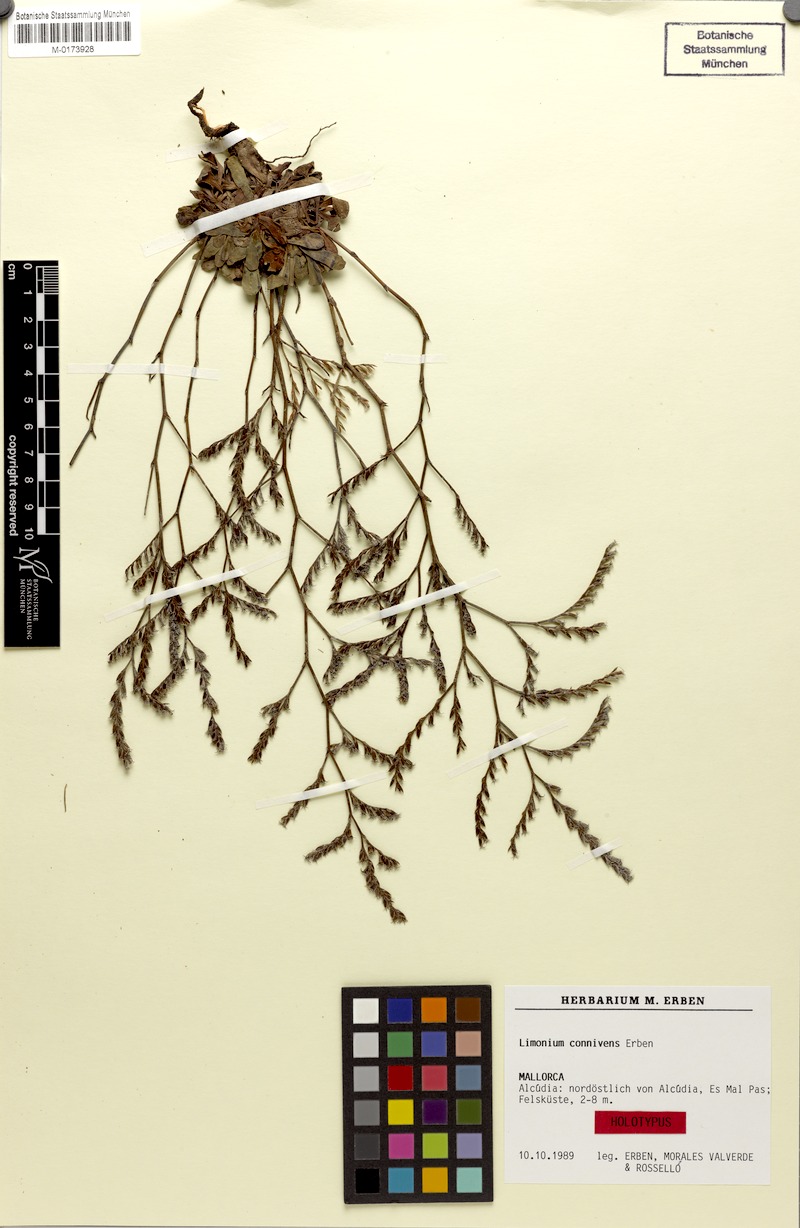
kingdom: Plantae
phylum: Tracheophyta
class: Magnoliopsida
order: Caryophyllales
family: Plumbaginaceae
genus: Limonium
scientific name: Limonium connivens
